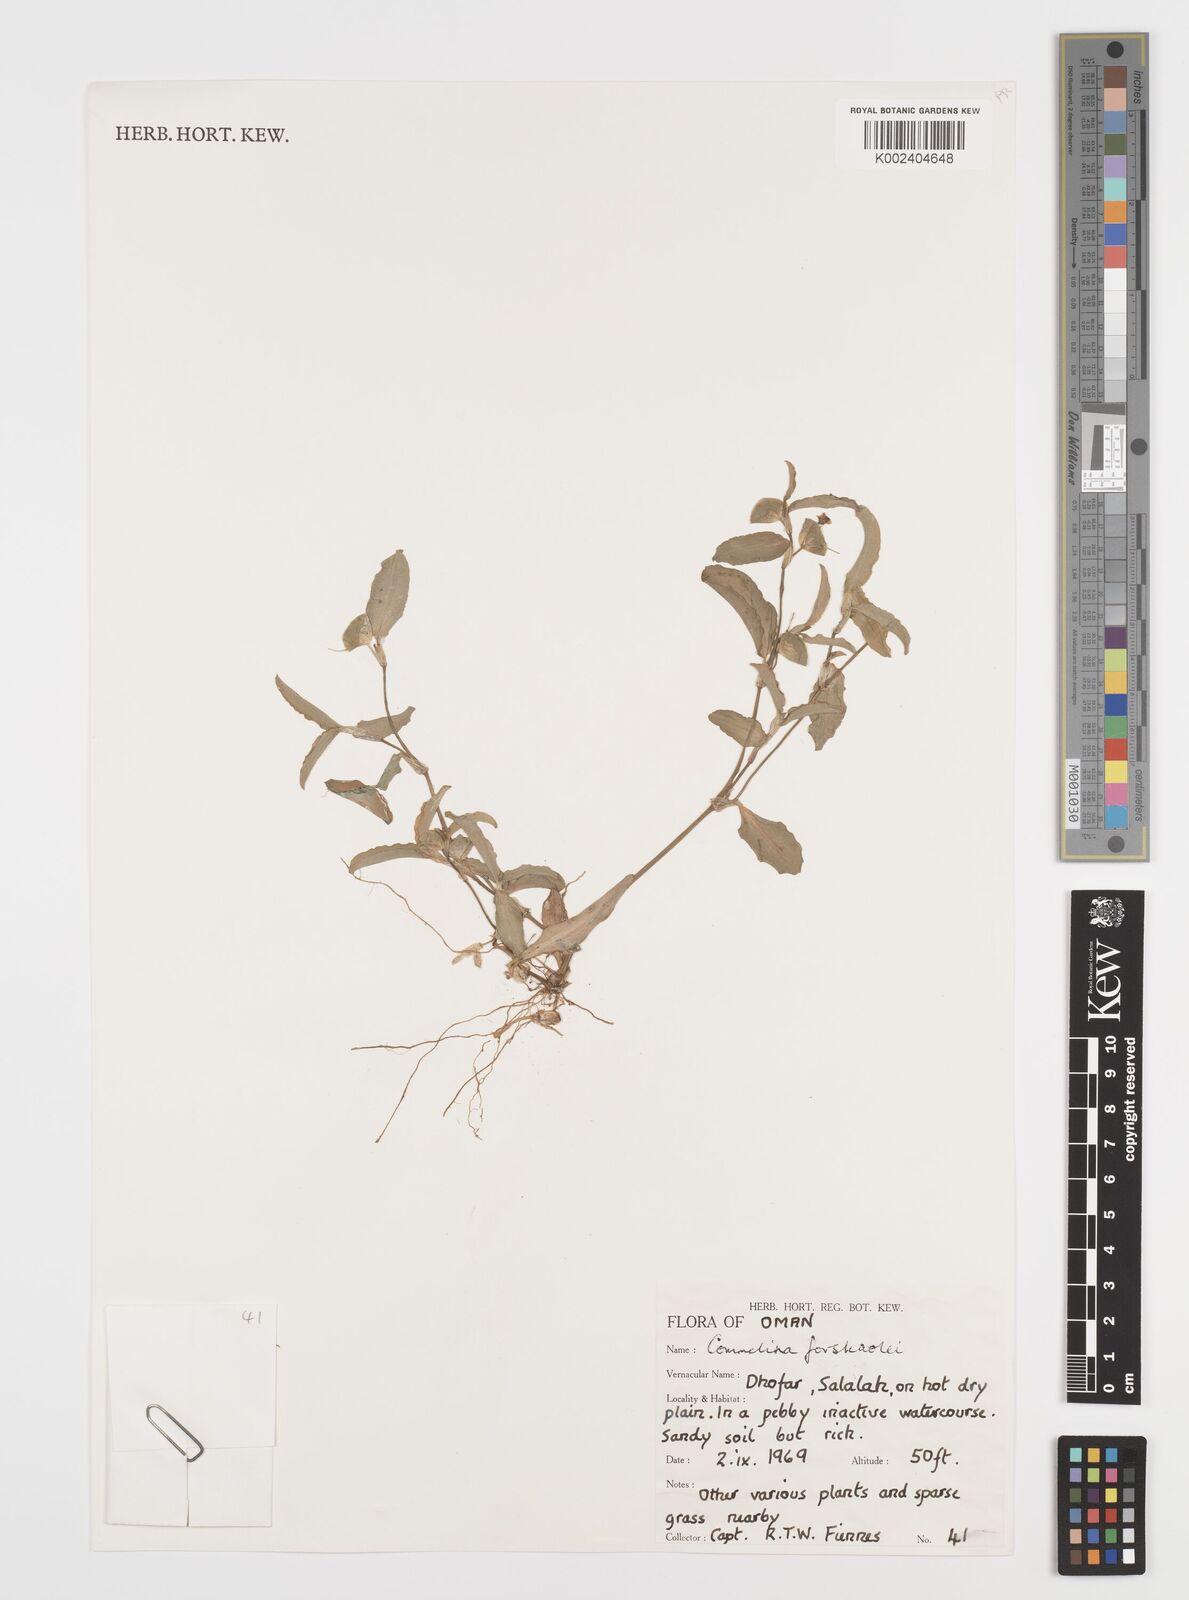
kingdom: Plantae
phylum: Tracheophyta
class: Liliopsida
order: Commelinales
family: Commelinaceae
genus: Commelina
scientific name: Commelina forskaolii
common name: Rat's ear
